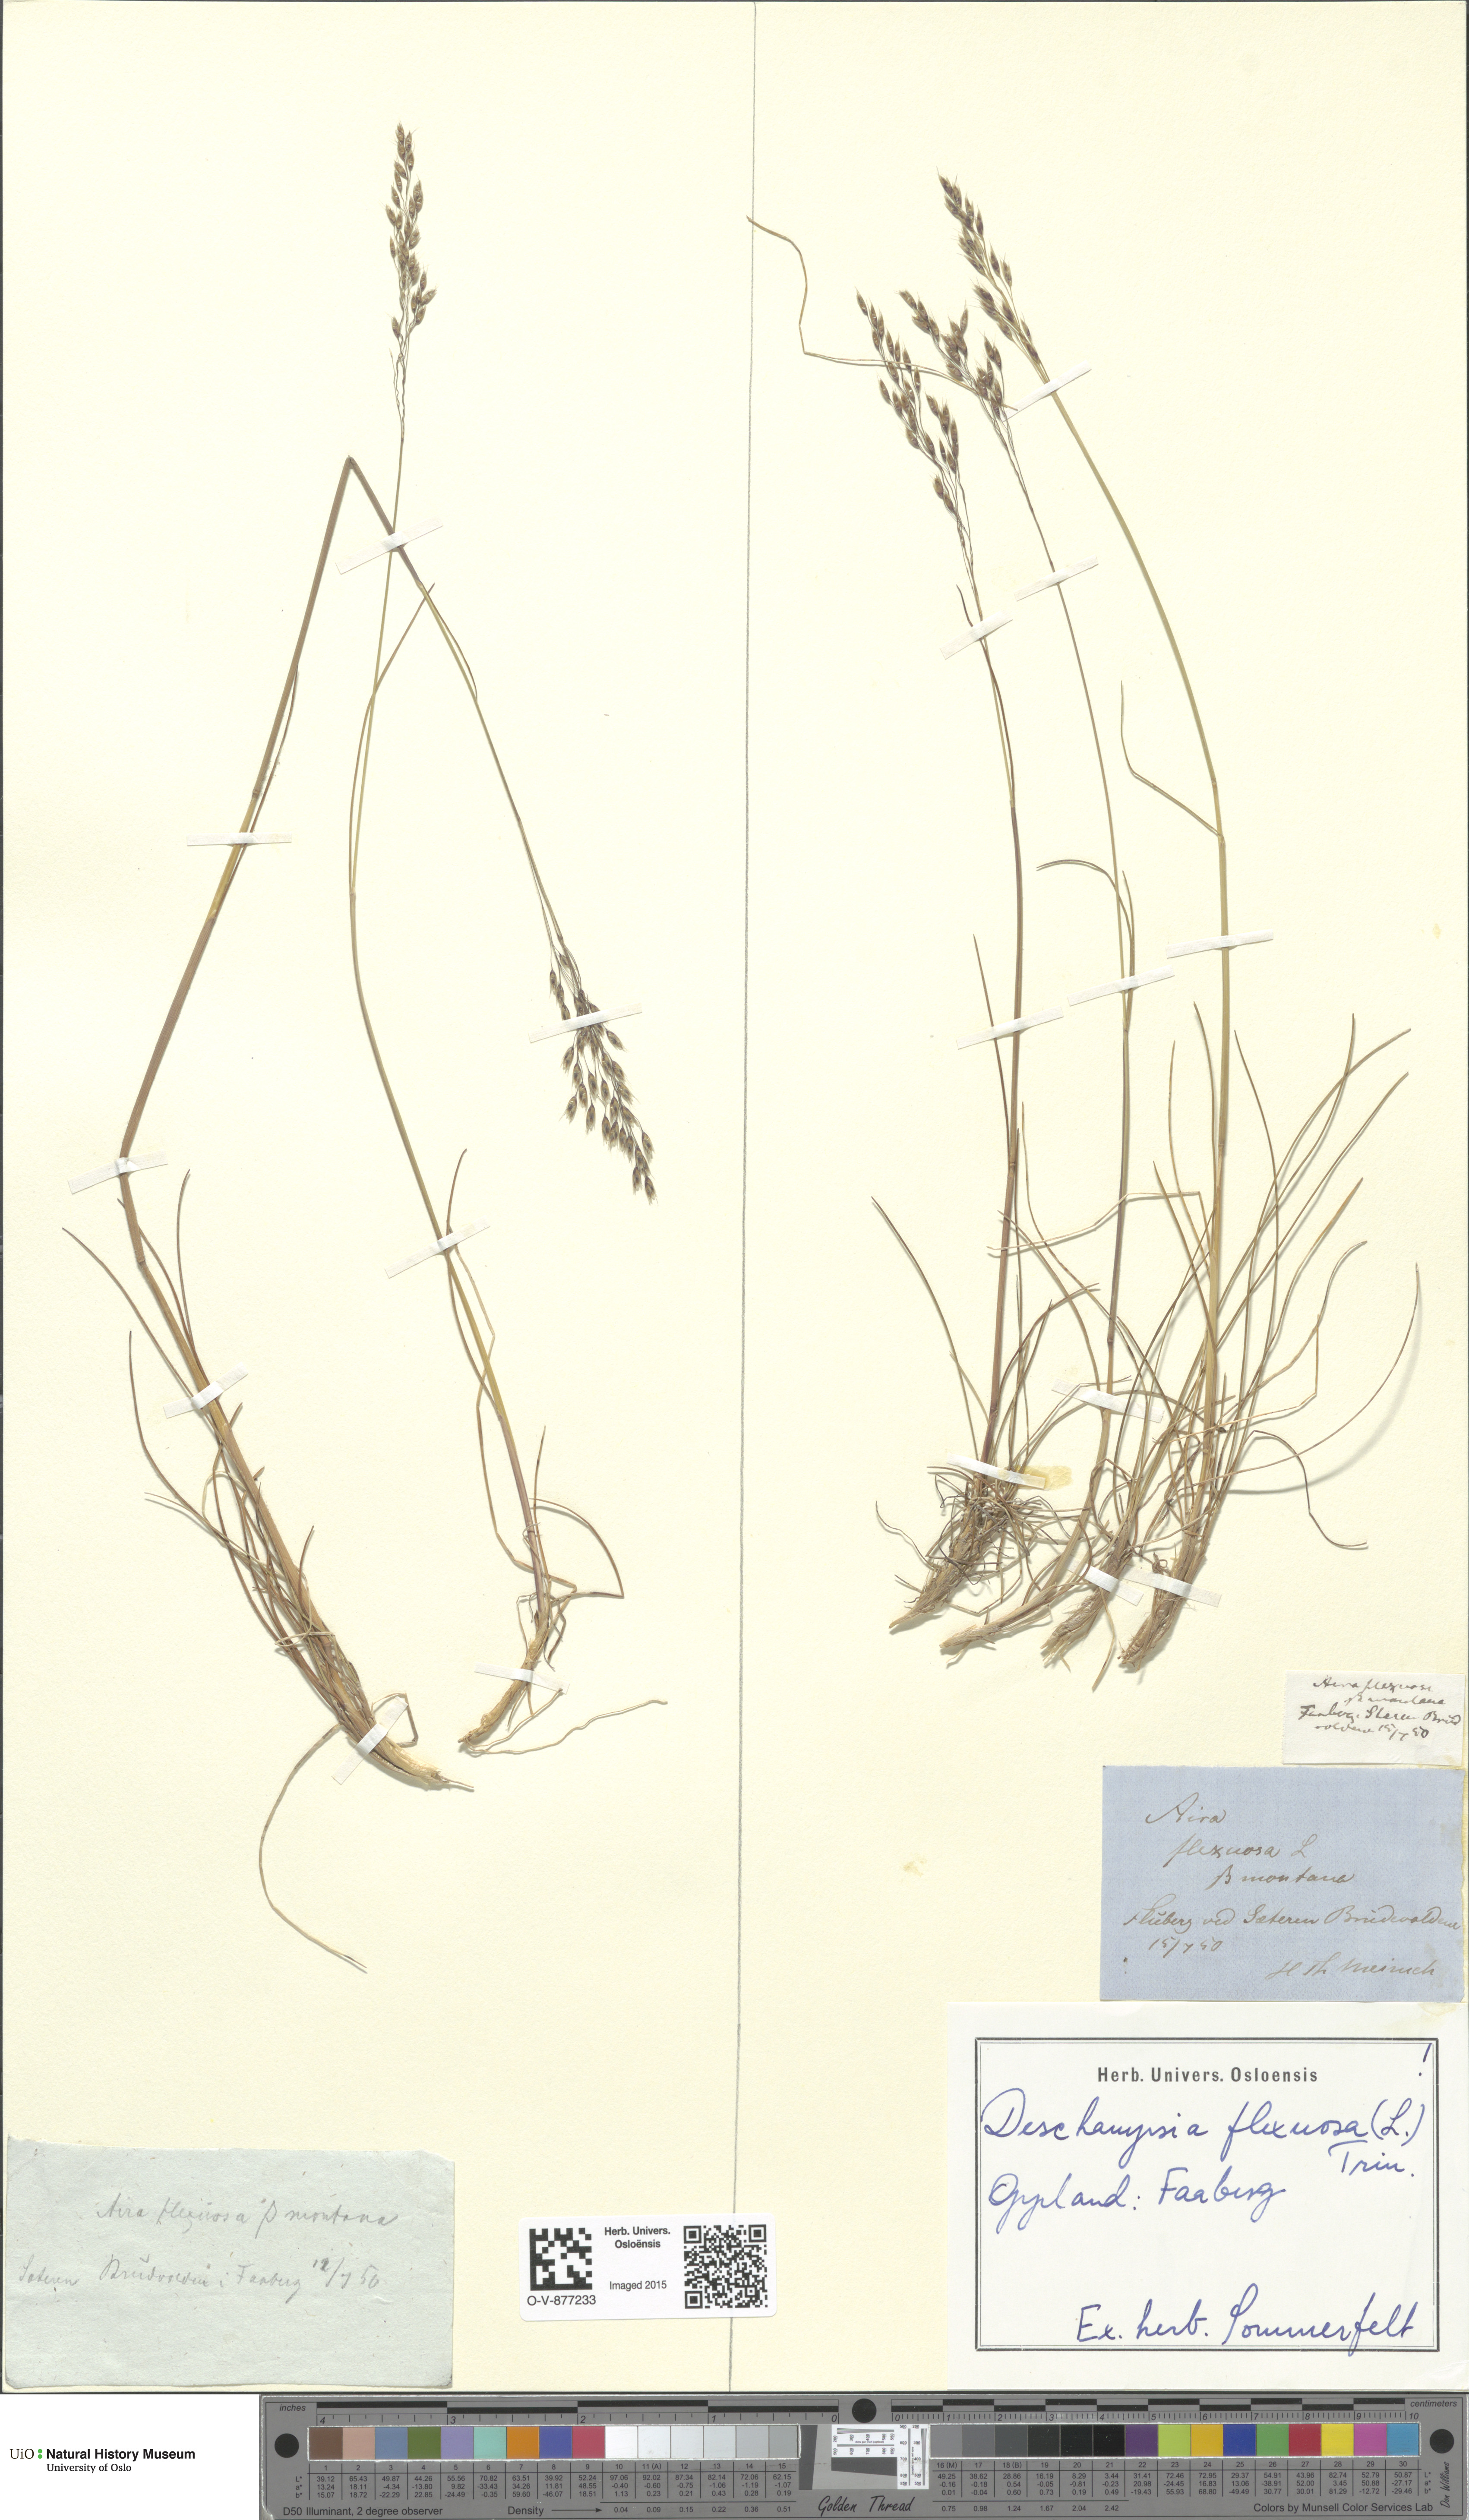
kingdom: Plantae
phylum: Tracheophyta
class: Liliopsida
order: Poales
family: Poaceae
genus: Avenella
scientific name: Avenella flexuosa
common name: Wavy hairgrass
